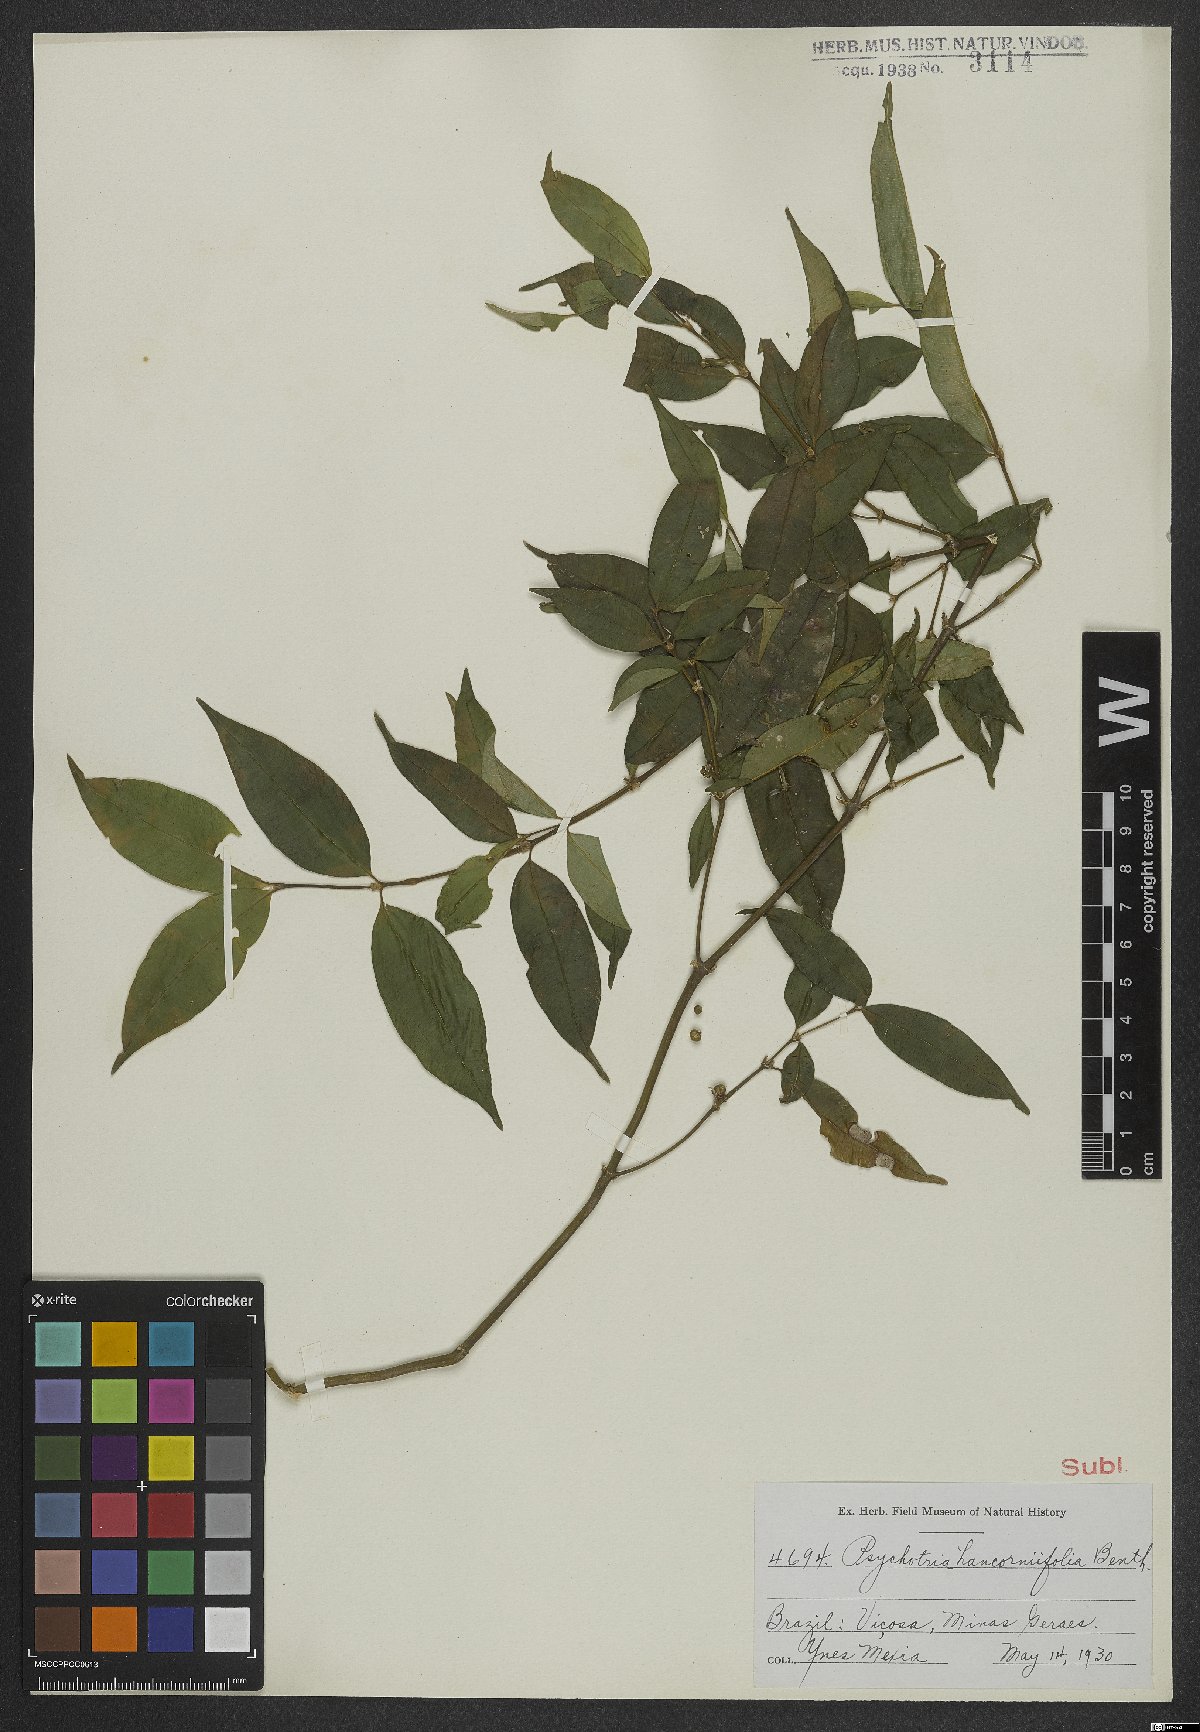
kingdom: Plantae
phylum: Tracheophyta
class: Magnoliopsida
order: Gentianales
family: Rubiaceae
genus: Palicourea
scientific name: Palicourea sessilis
